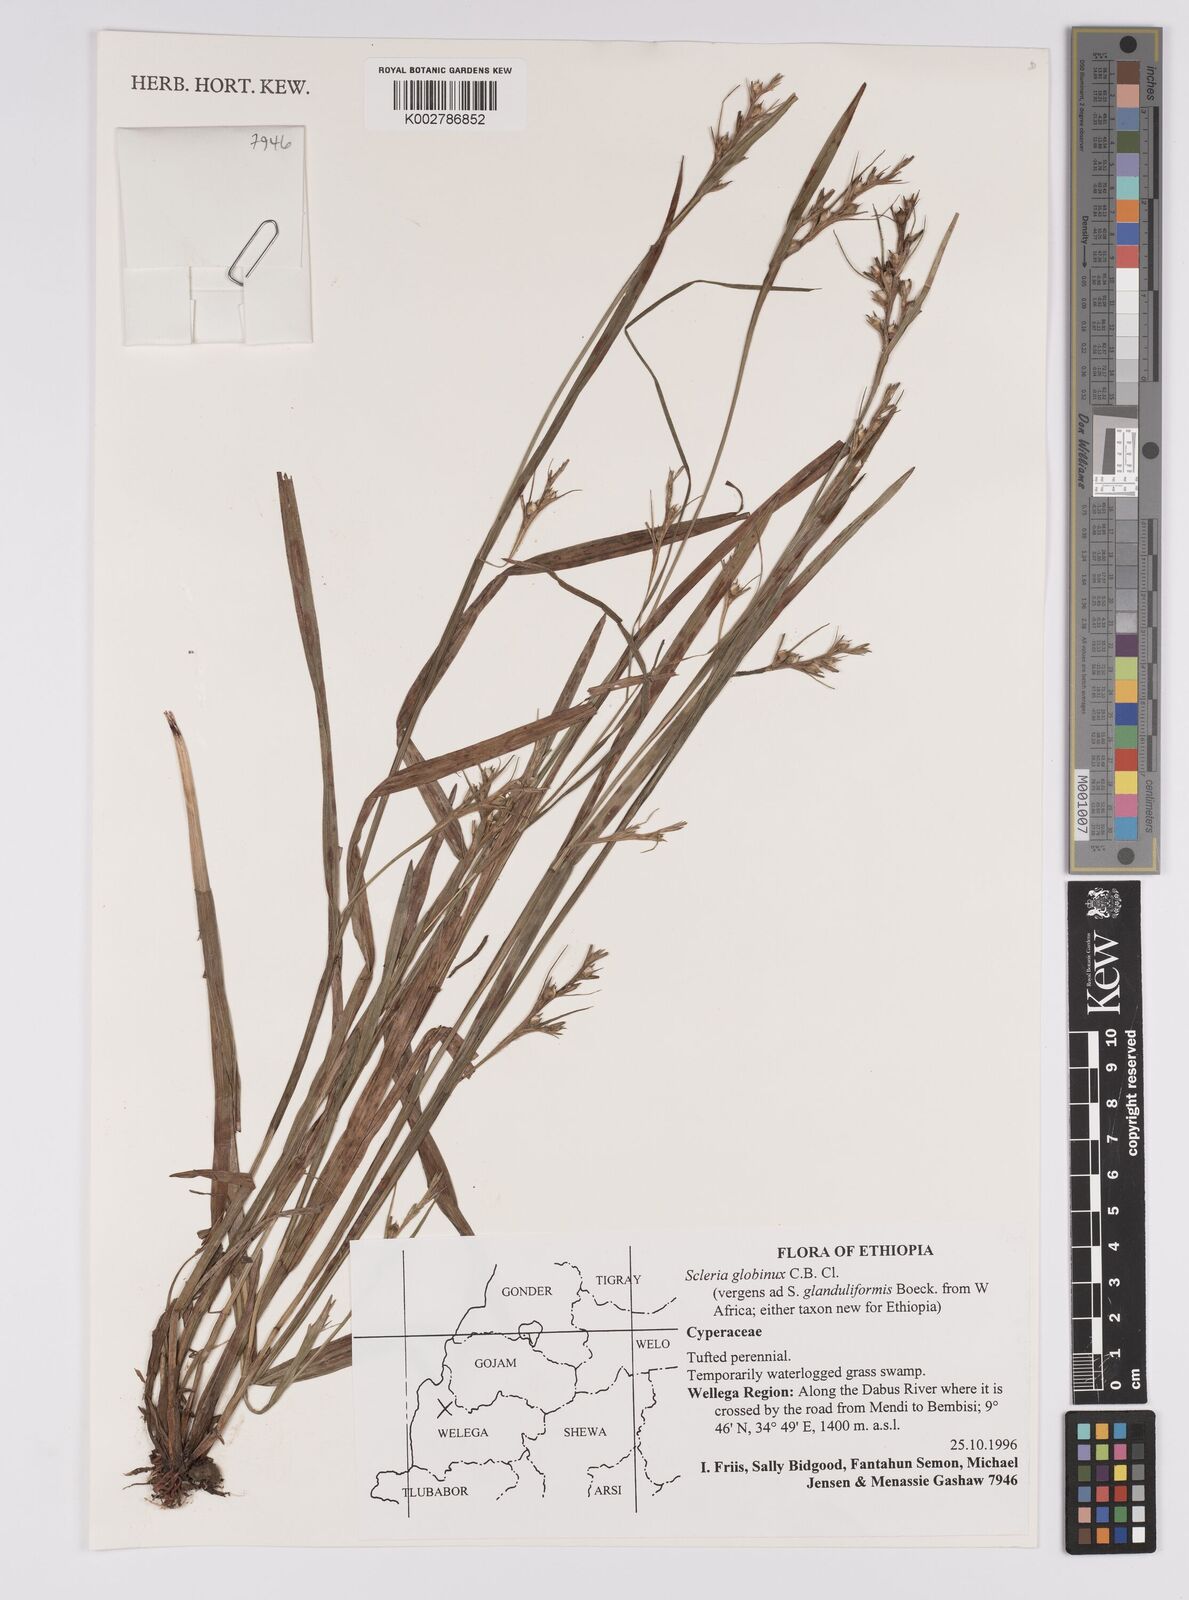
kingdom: Plantae
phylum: Tracheophyta
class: Liliopsida
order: Poales
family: Cyperaceae
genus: Scleria
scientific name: Scleria globonux
